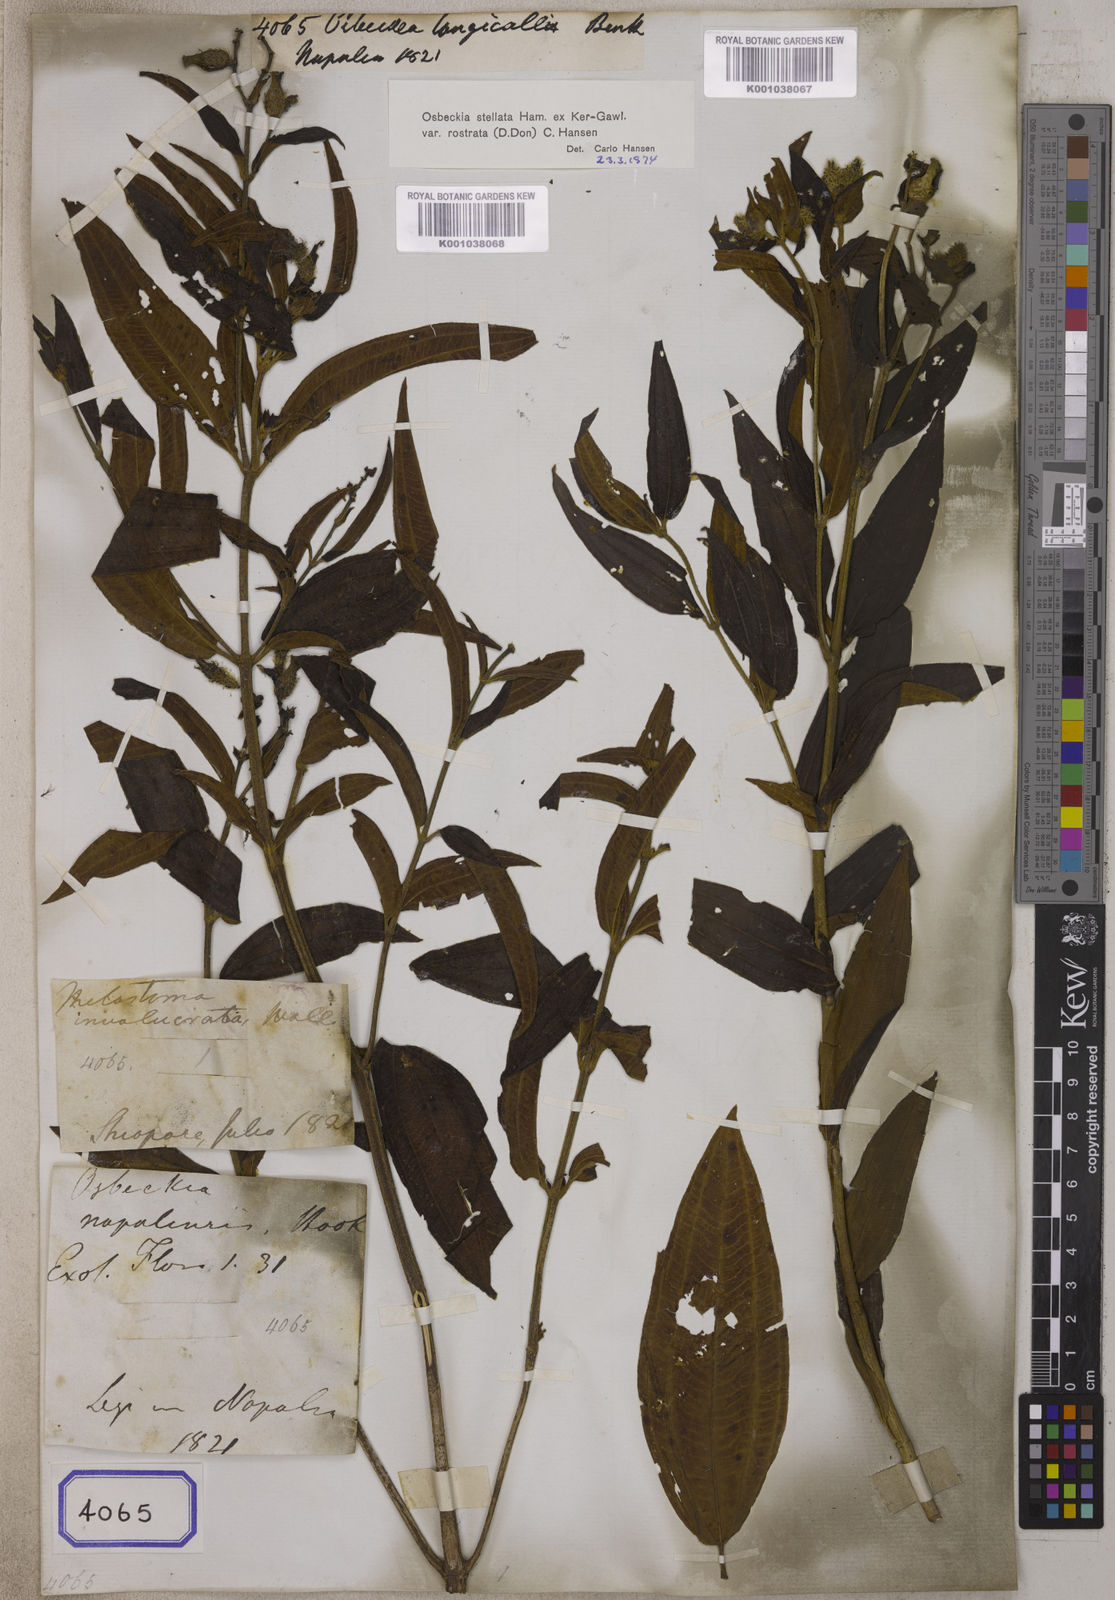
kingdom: Plantae
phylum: Tracheophyta
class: Magnoliopsida
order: Myrtales
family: Melastomataceae
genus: Osbeckia
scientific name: Osbeckia rostrata
